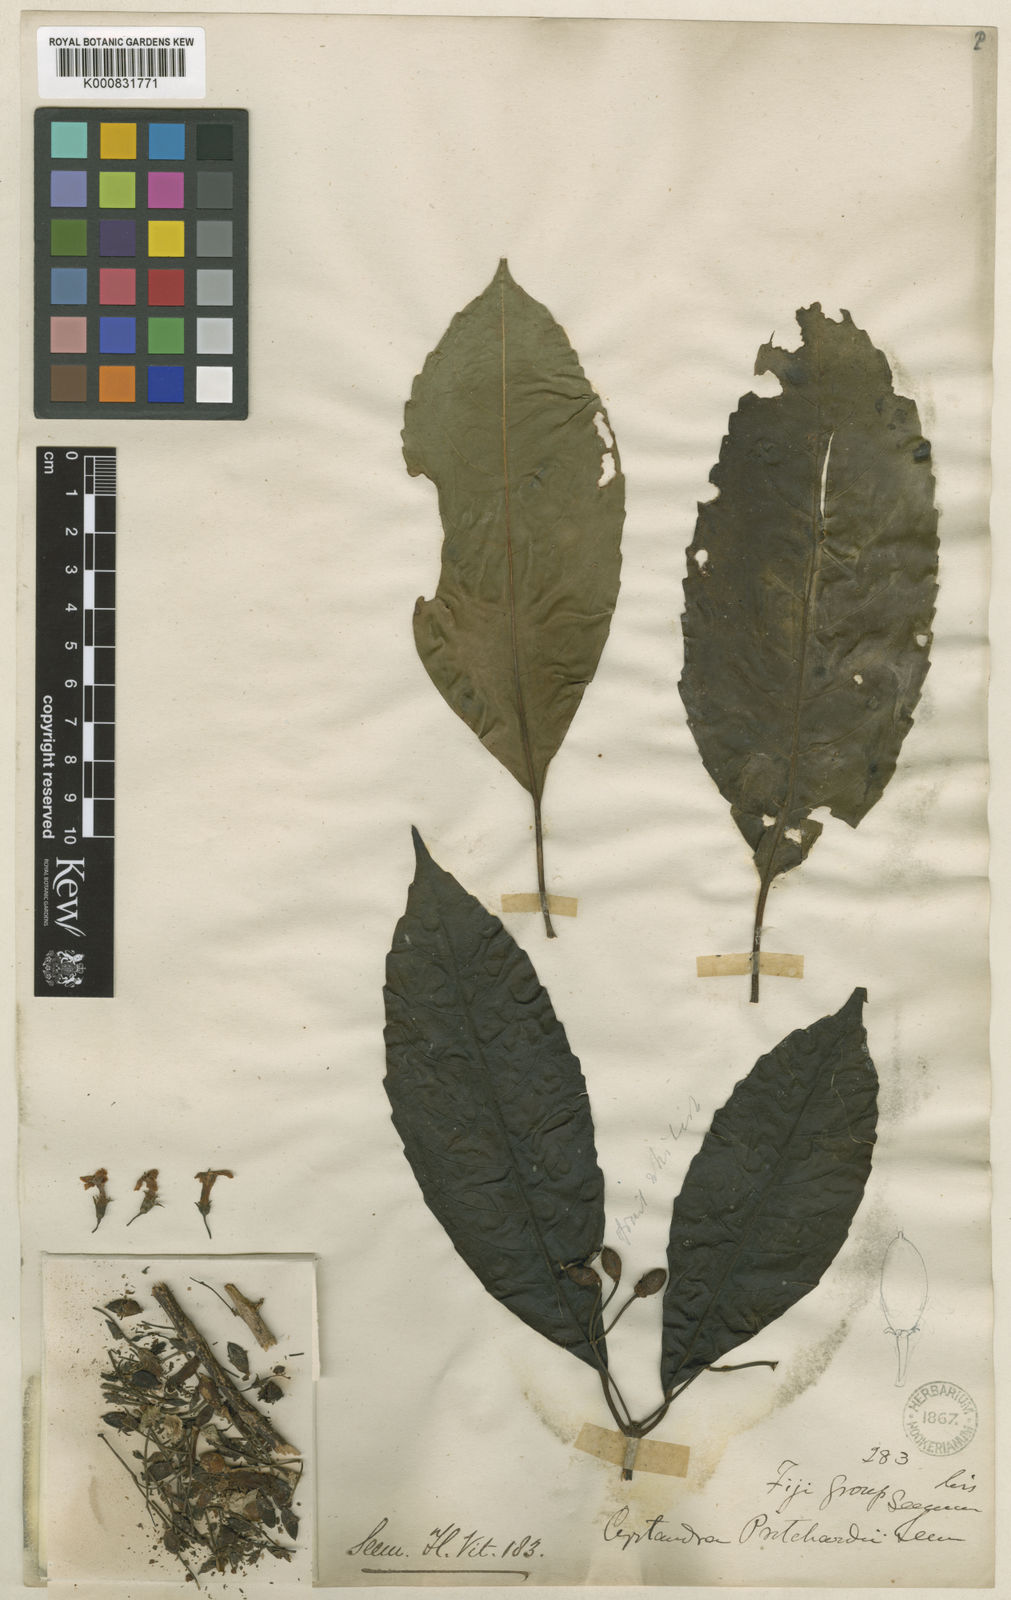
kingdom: Plantae
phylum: Tracheophyta
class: Magnoliopsida
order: Lamiales
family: Gesneriaceae
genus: Cyrtandra
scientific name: Cyrtandra pritchardii
